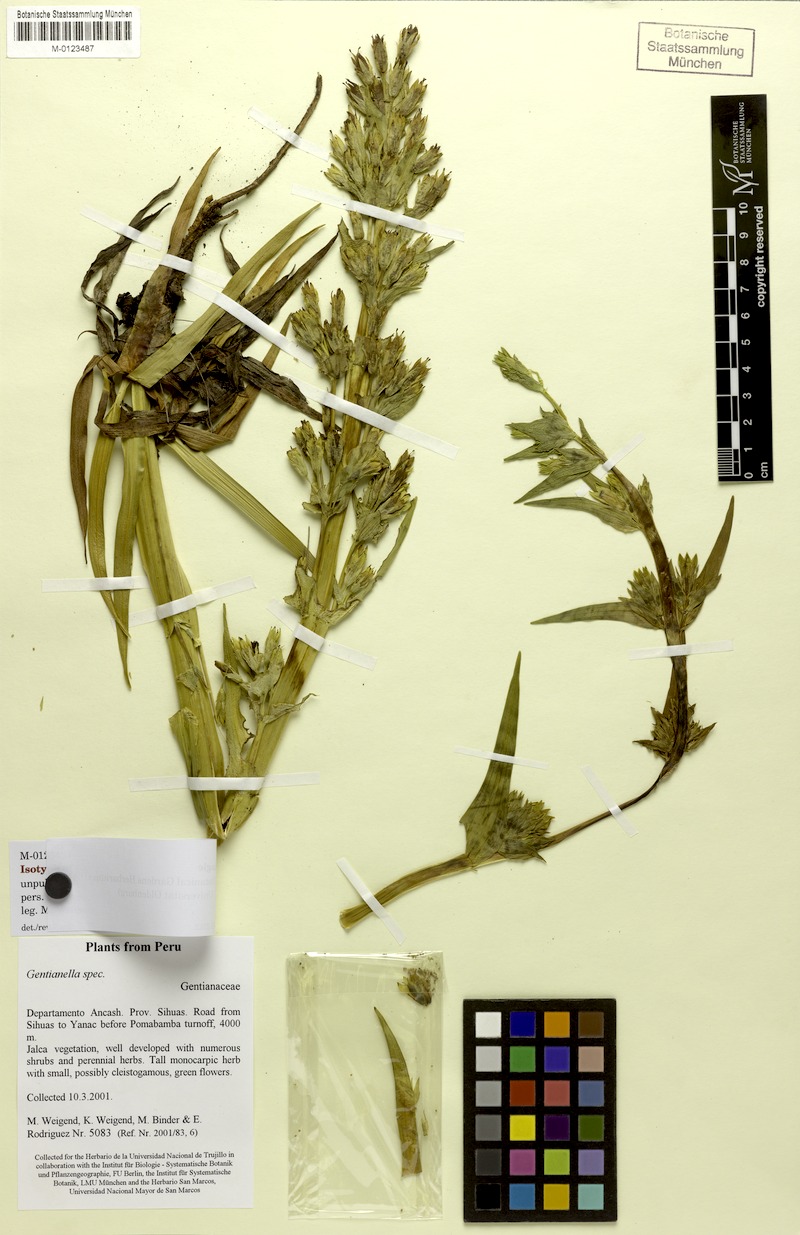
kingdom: Plantae
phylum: Tracheophyta
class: Magnoliopsida
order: Gentianales
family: Gentianaceae
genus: Gentianella
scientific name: Gentianella weigendii
